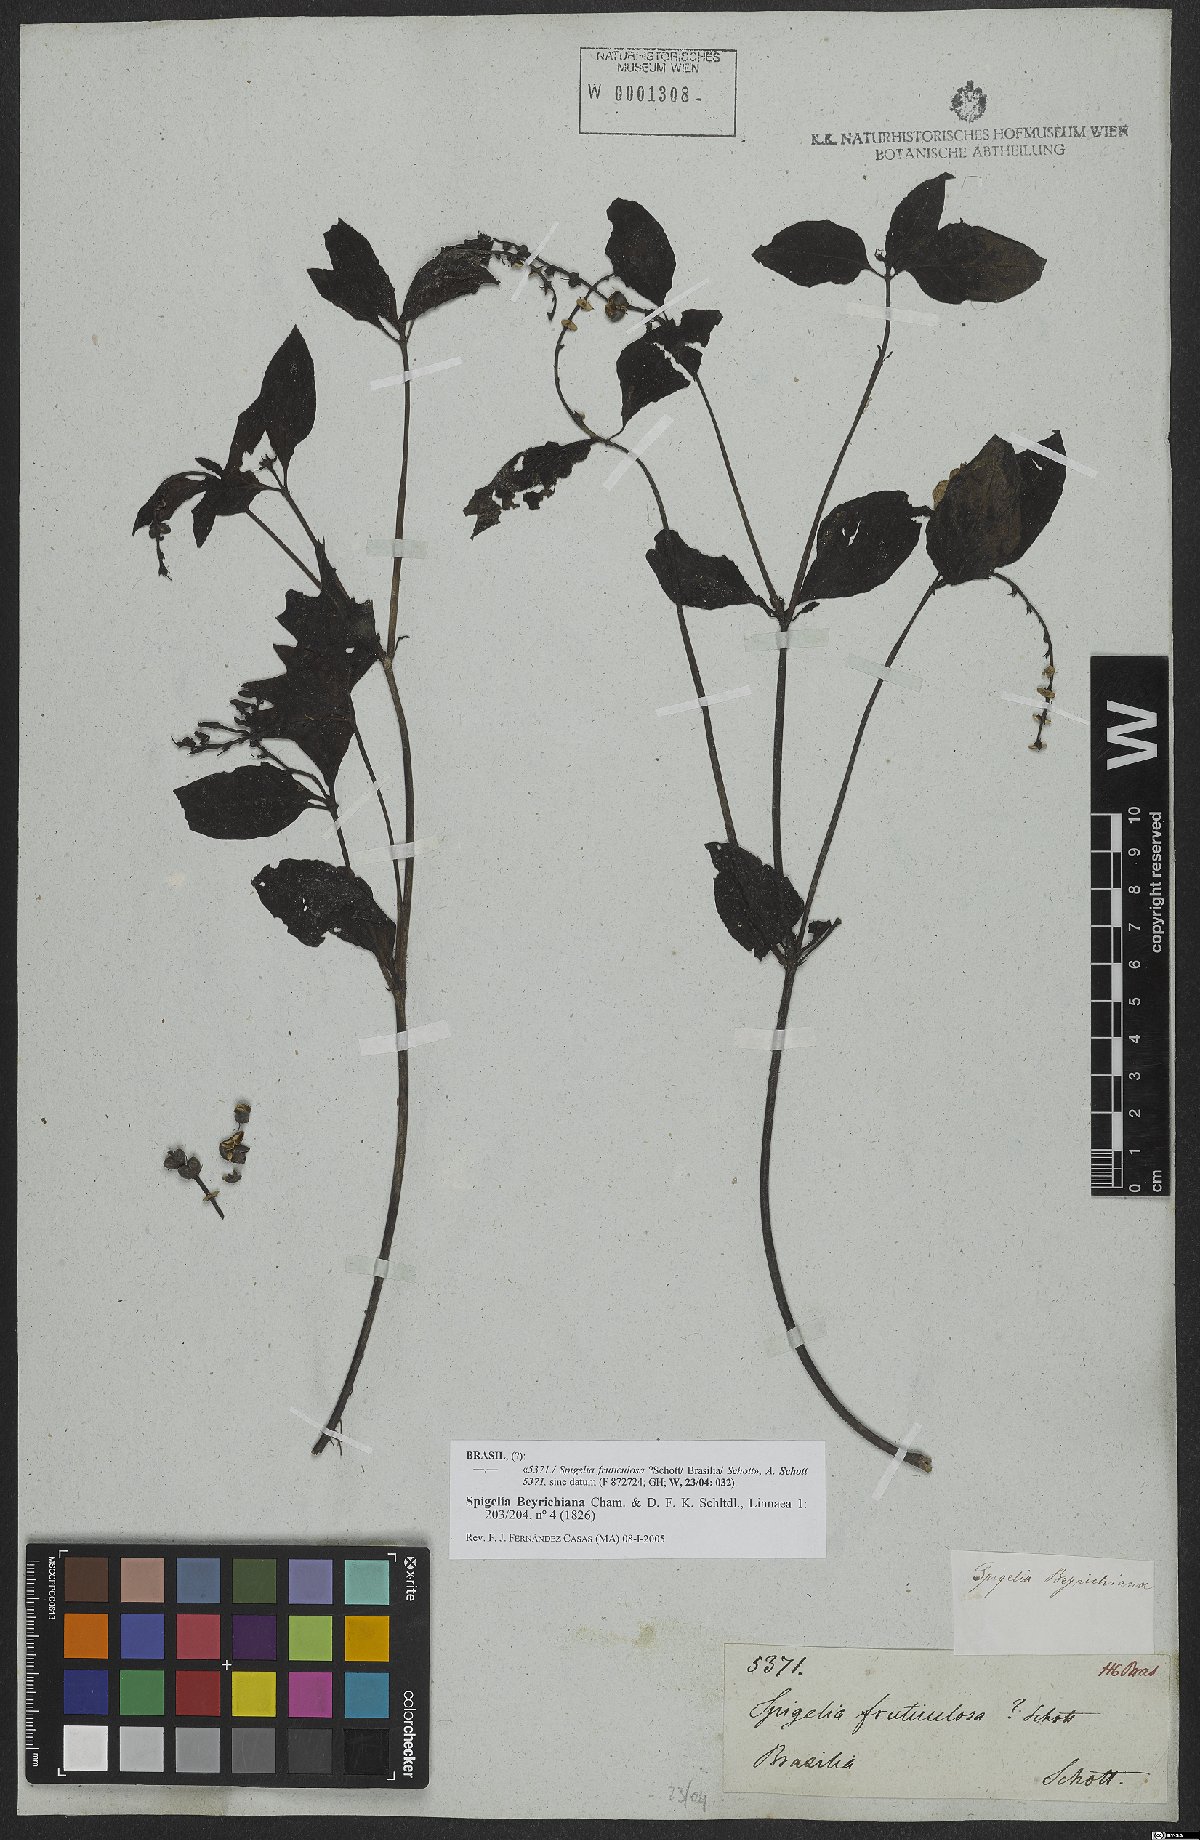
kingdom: Plantae
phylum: Tracheophyta
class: Magnoliopsida
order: Gentianales
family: Loganiaceae
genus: Spigelia
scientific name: Spigelia beyrichiana
